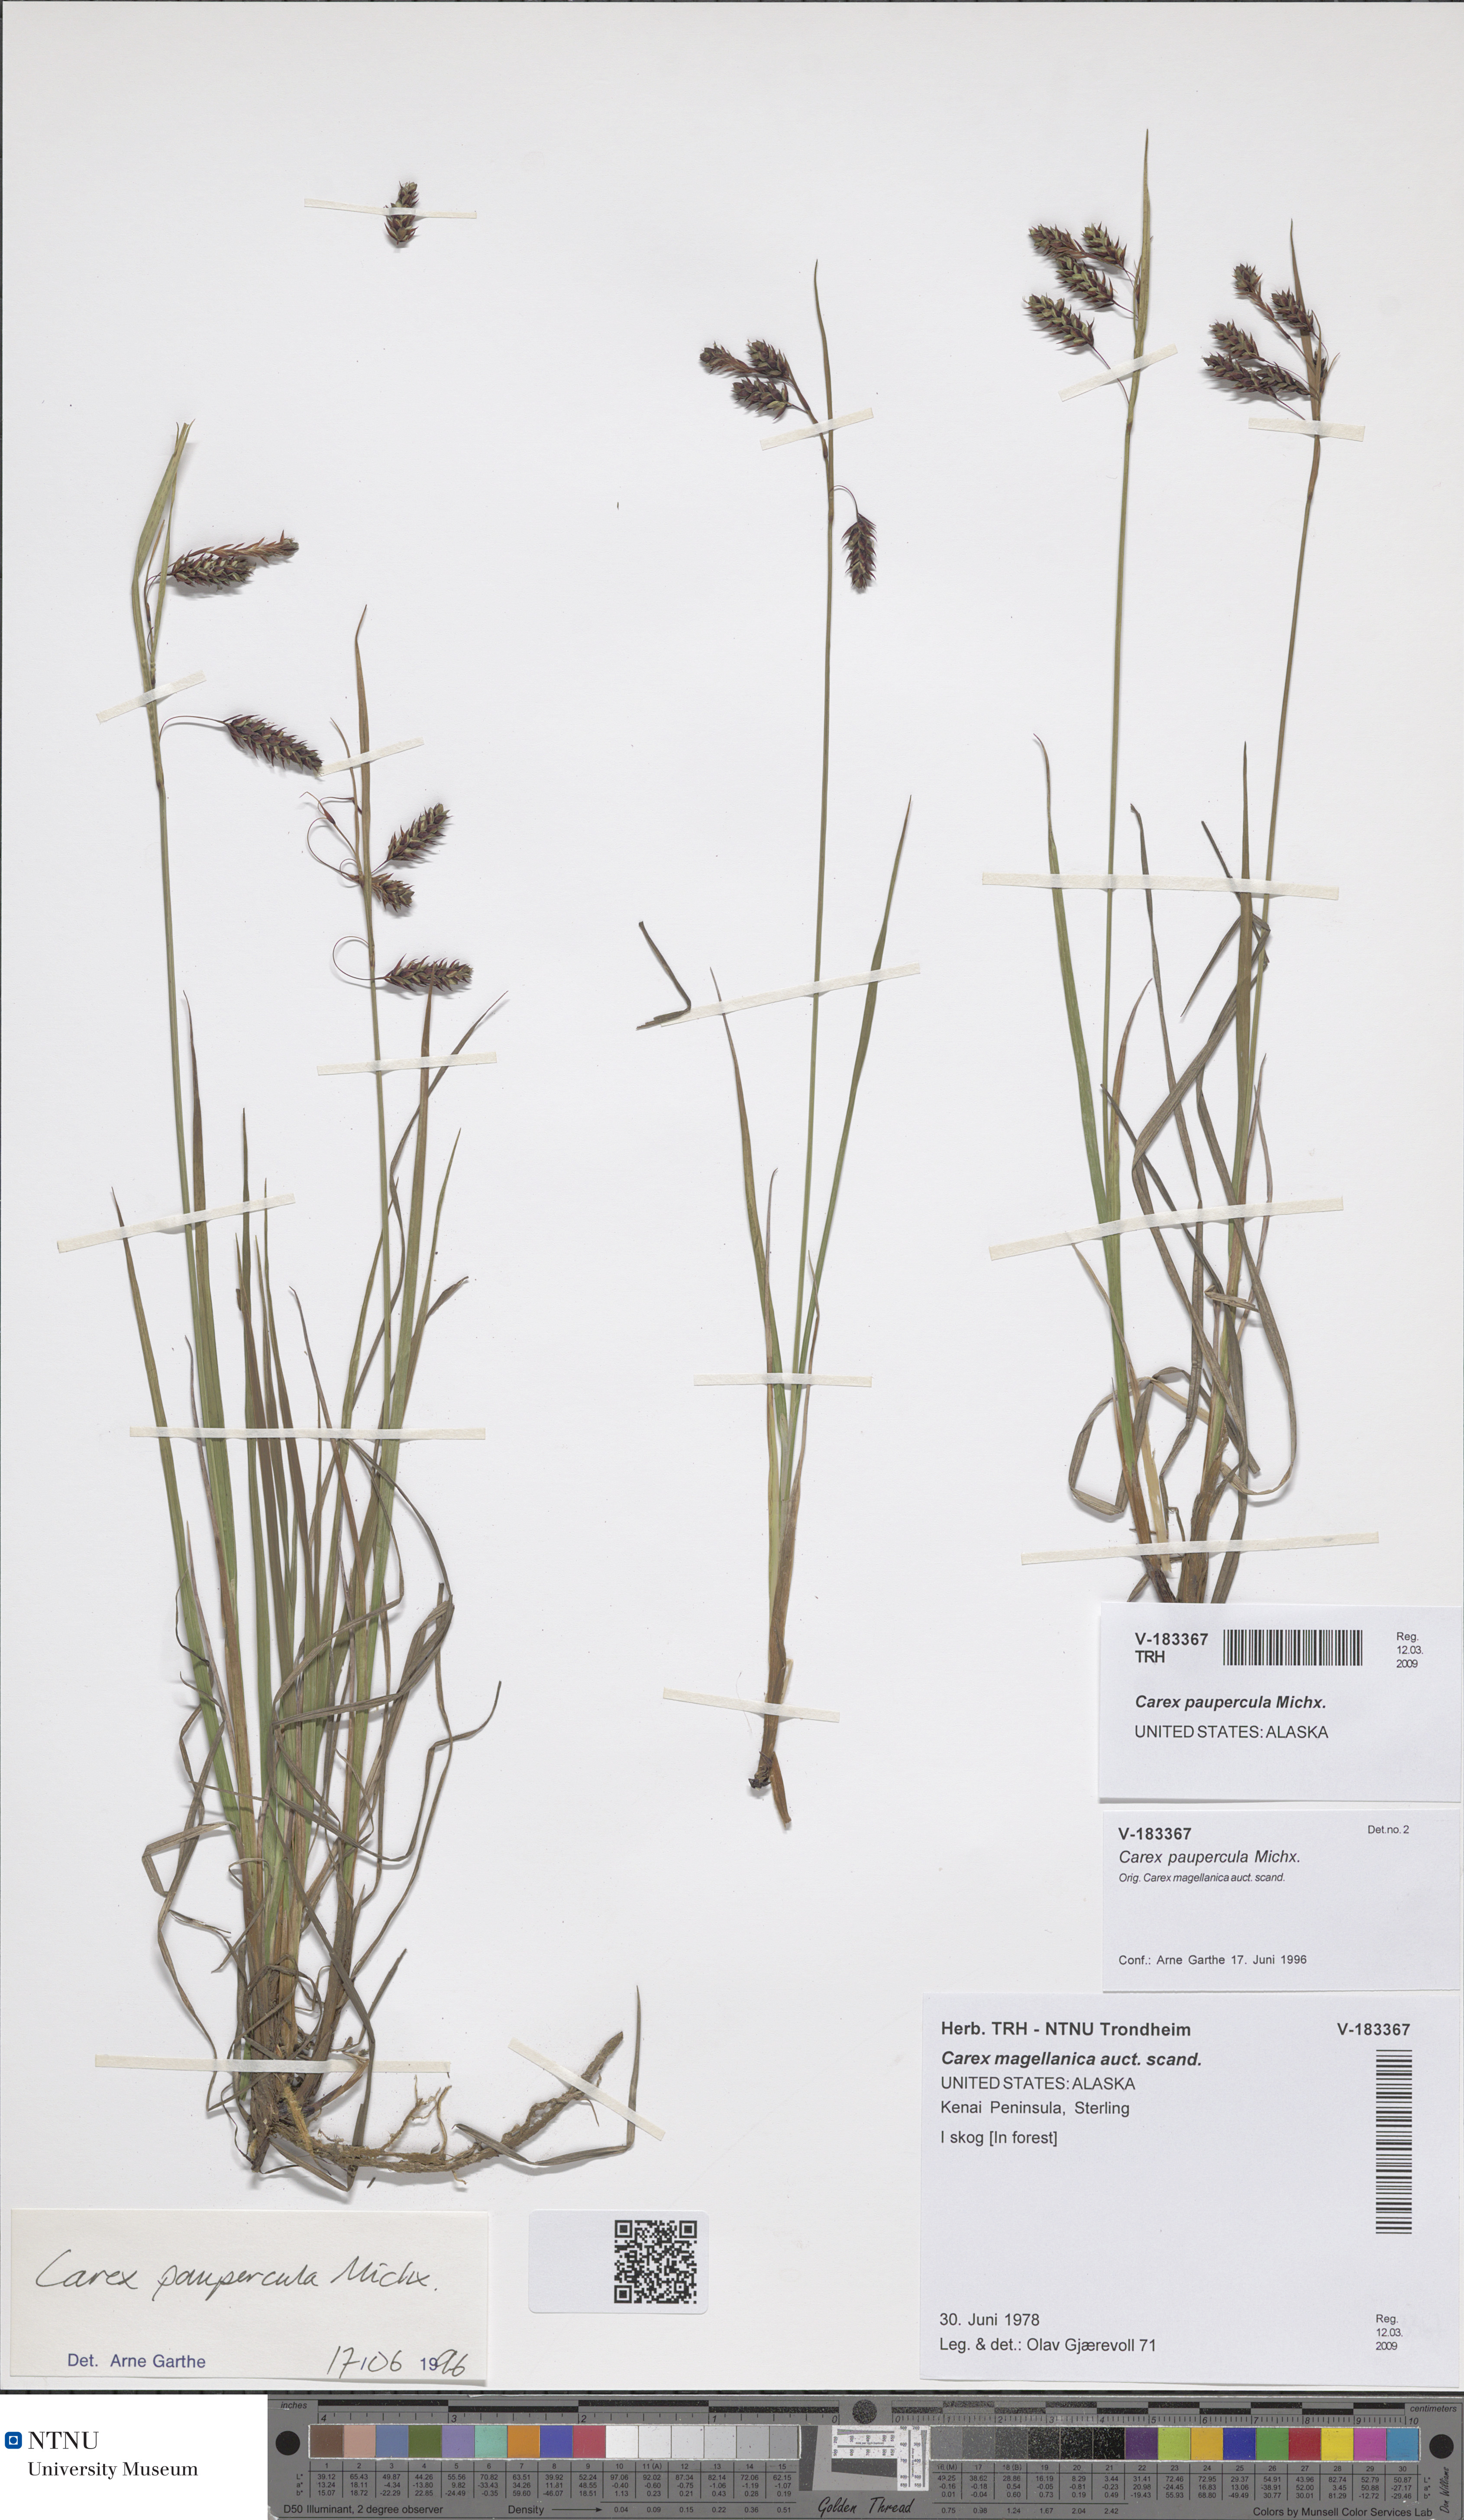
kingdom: Plantae
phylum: Tracheophyta
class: Liliopsida
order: Poales
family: Cyperaceae
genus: Carex
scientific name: Carex magellanica
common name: Bog sedge
